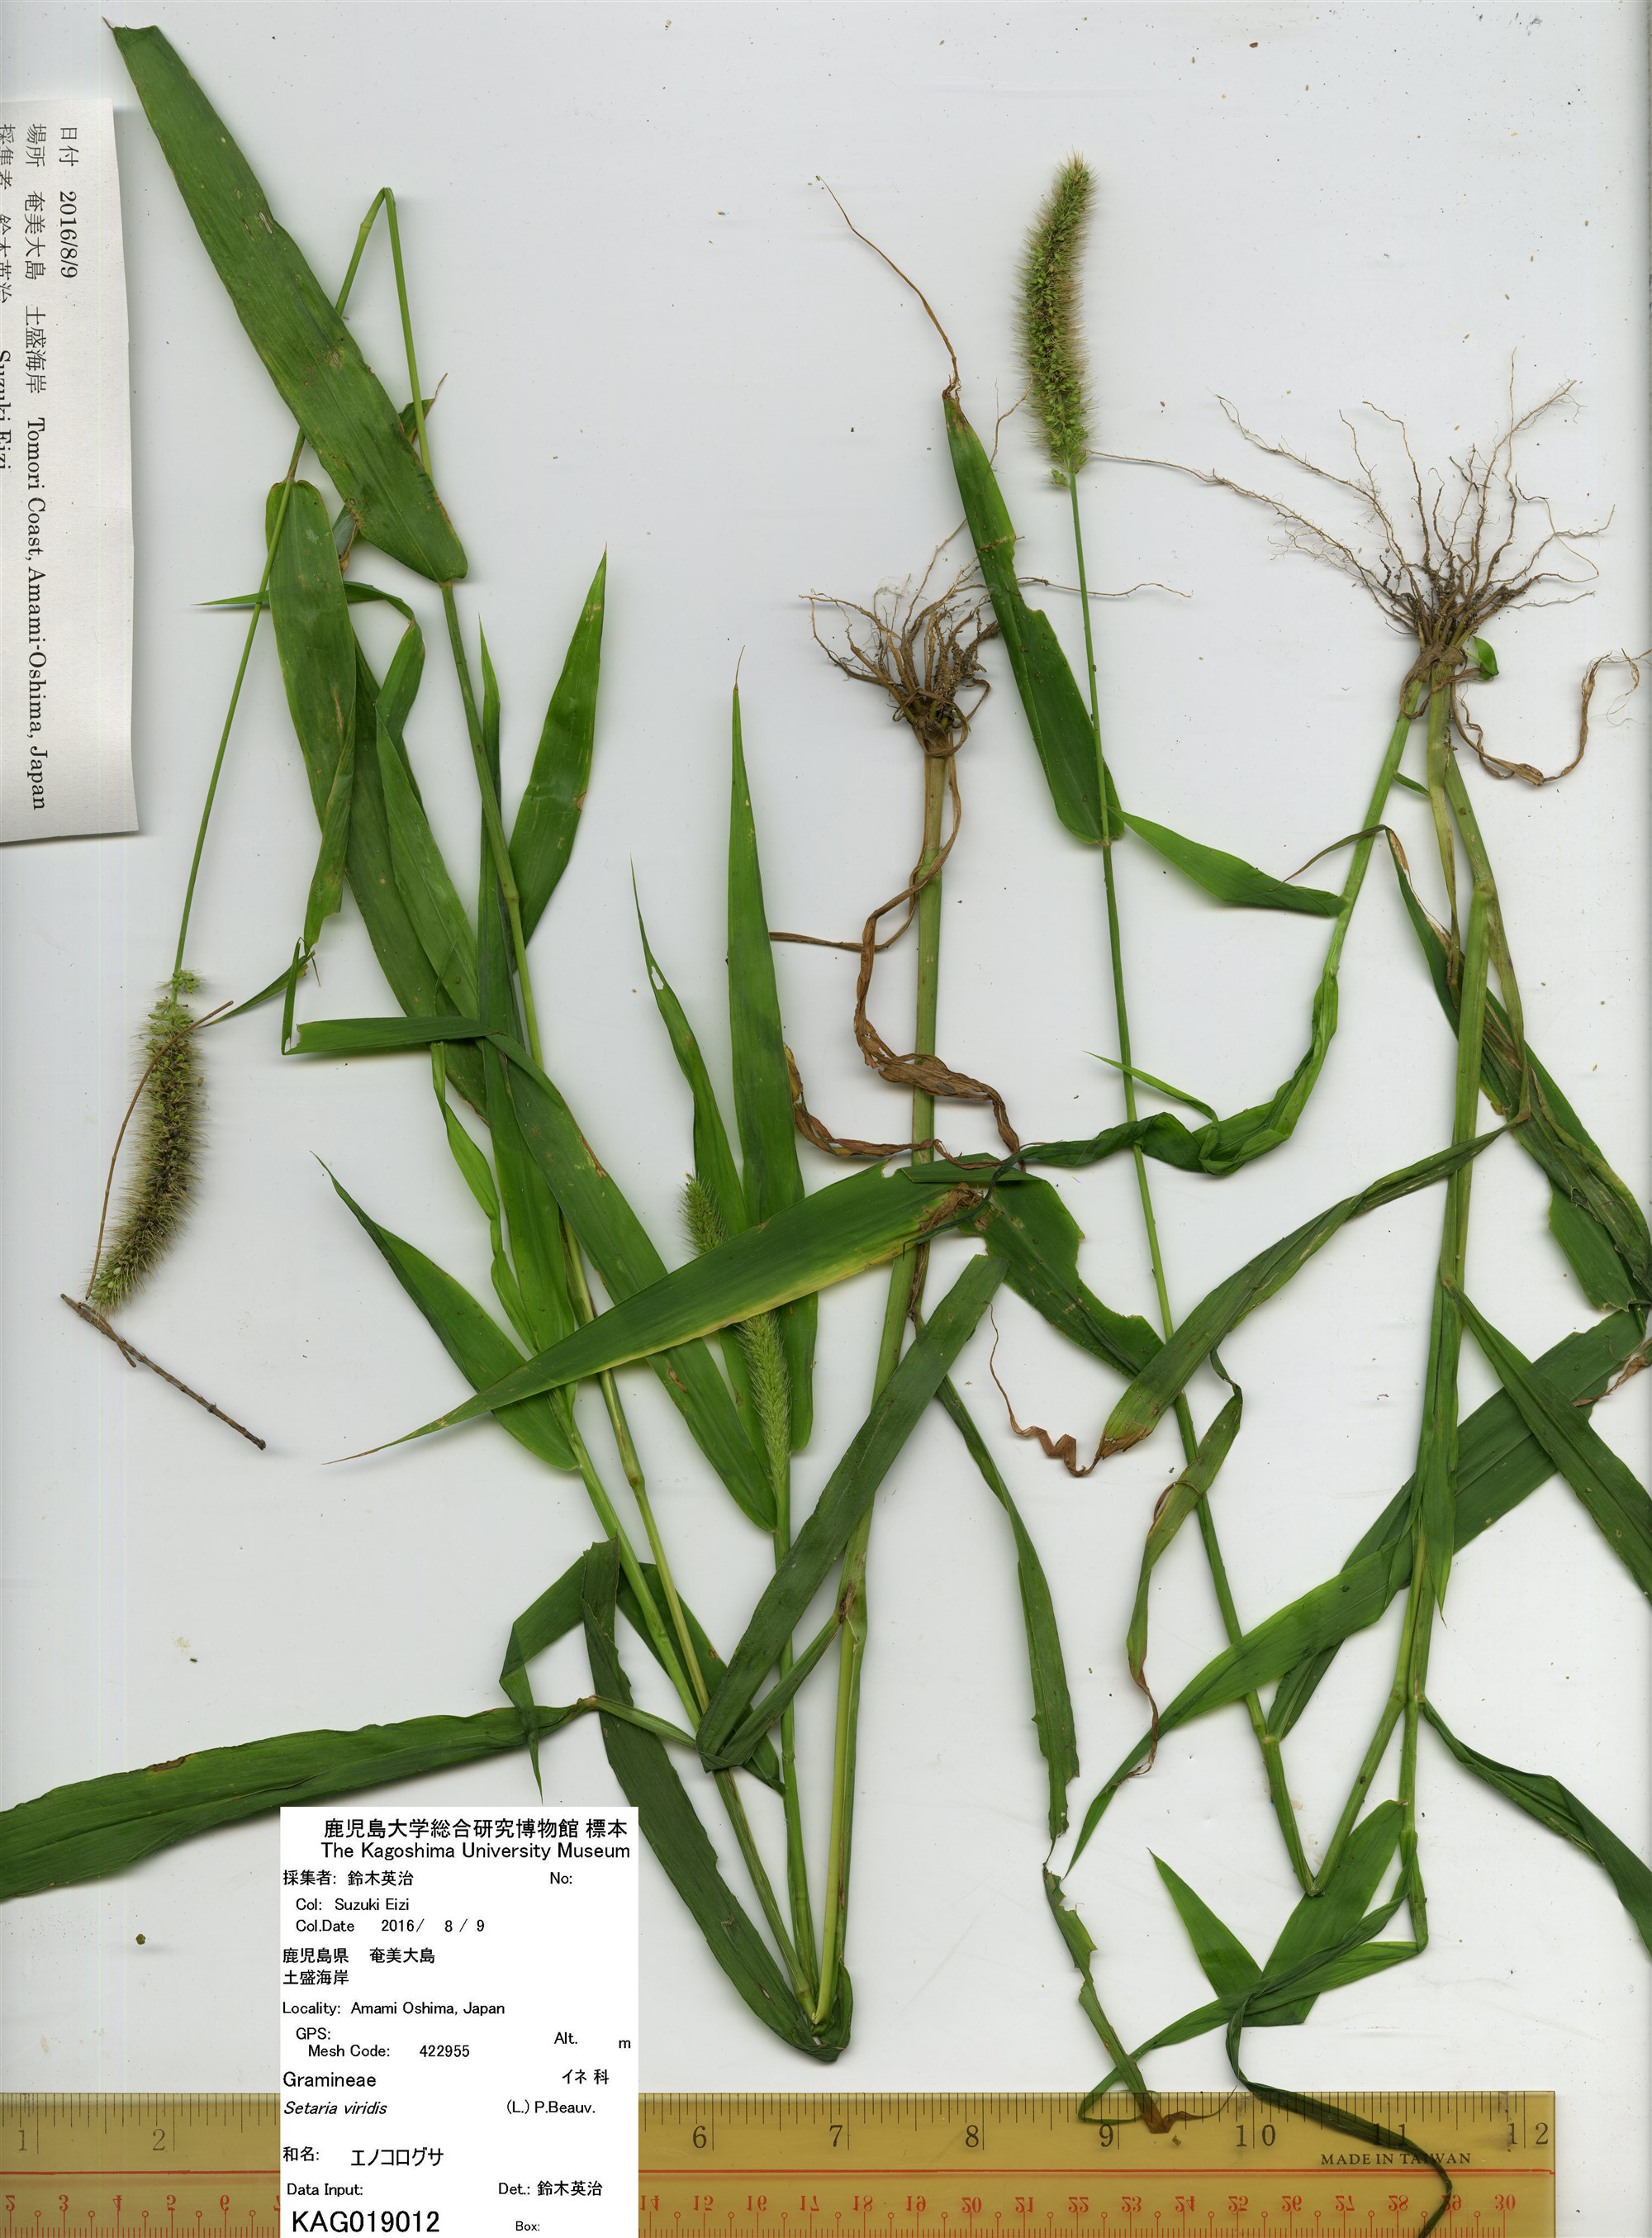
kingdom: Plantae
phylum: Tracheophyta
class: Liliopsida
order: Poales
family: Poaceae
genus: Setaria
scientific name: Setaria viridis
